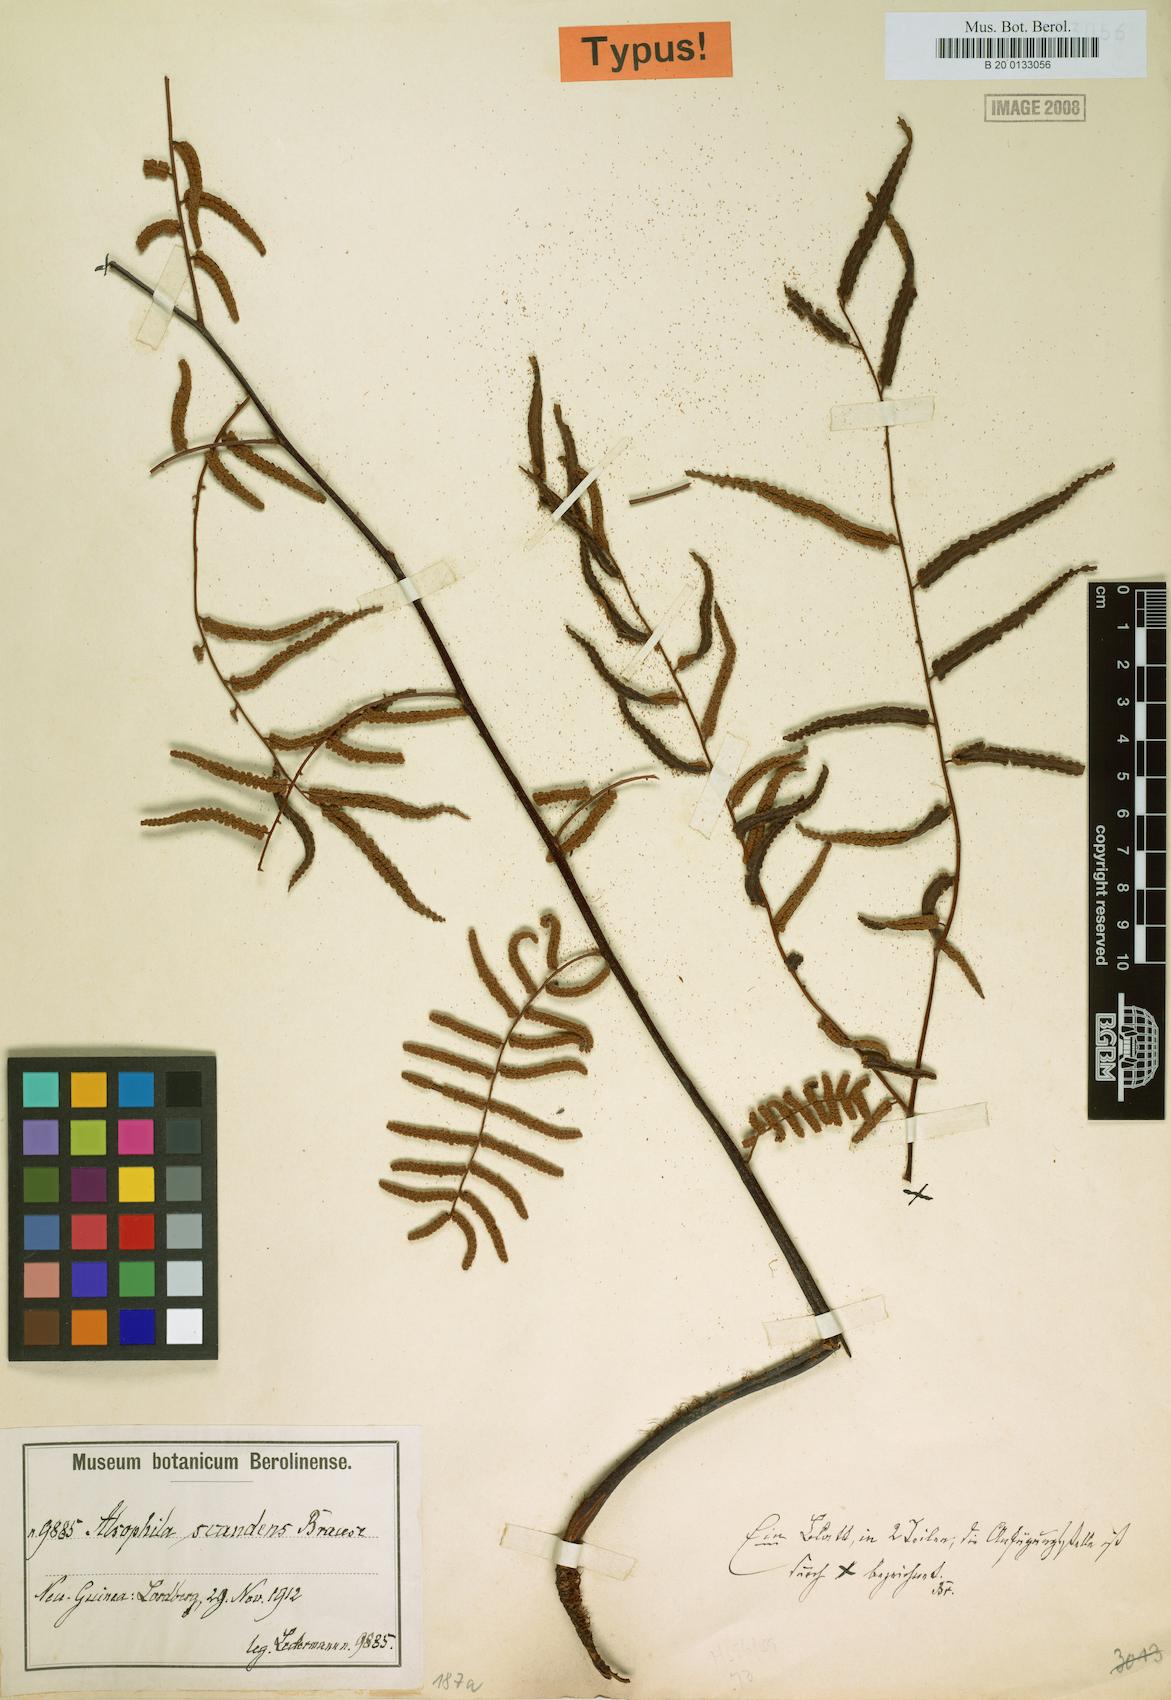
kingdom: Plantae
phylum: Tracheophyta
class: Polypodiopsida
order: Cyatheales
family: Cyatheaceae
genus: Gymnosphaera
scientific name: Gymnosphaera scandens
